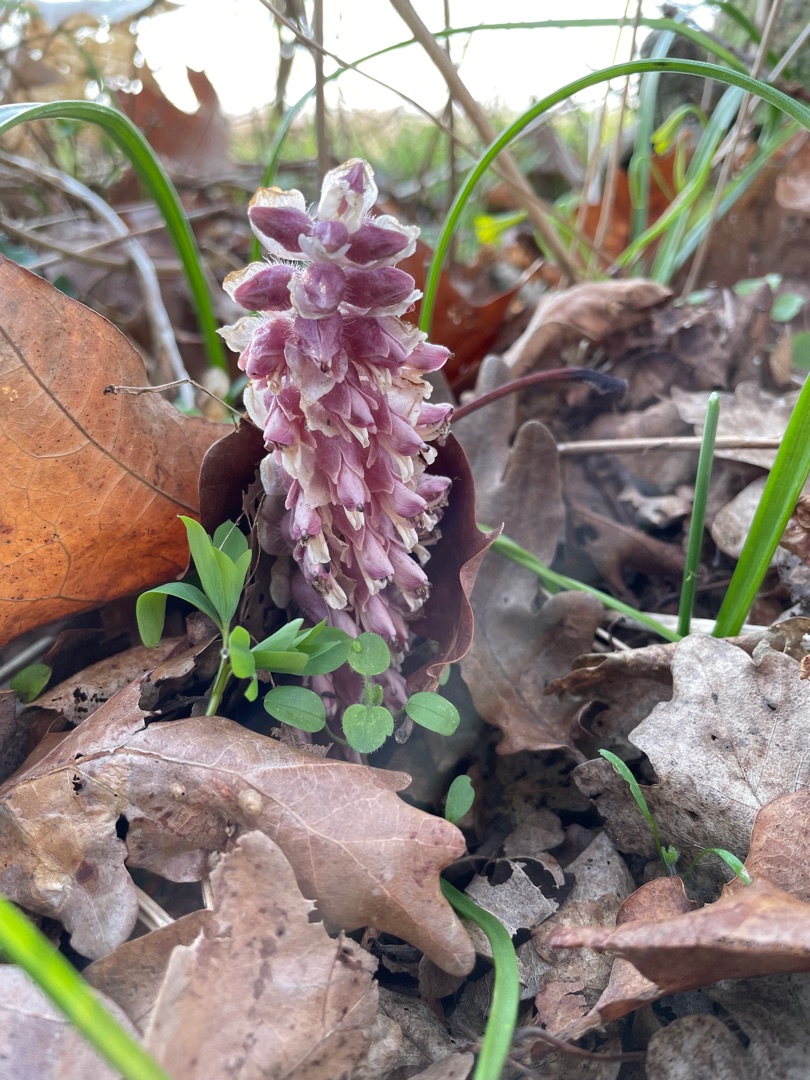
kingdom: Plantae
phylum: Tracheophyta
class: Magnoliopsida
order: Lamiales
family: Orobanchaceae
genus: Lathraea
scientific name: Lathraea squamaria
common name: Skælrod
